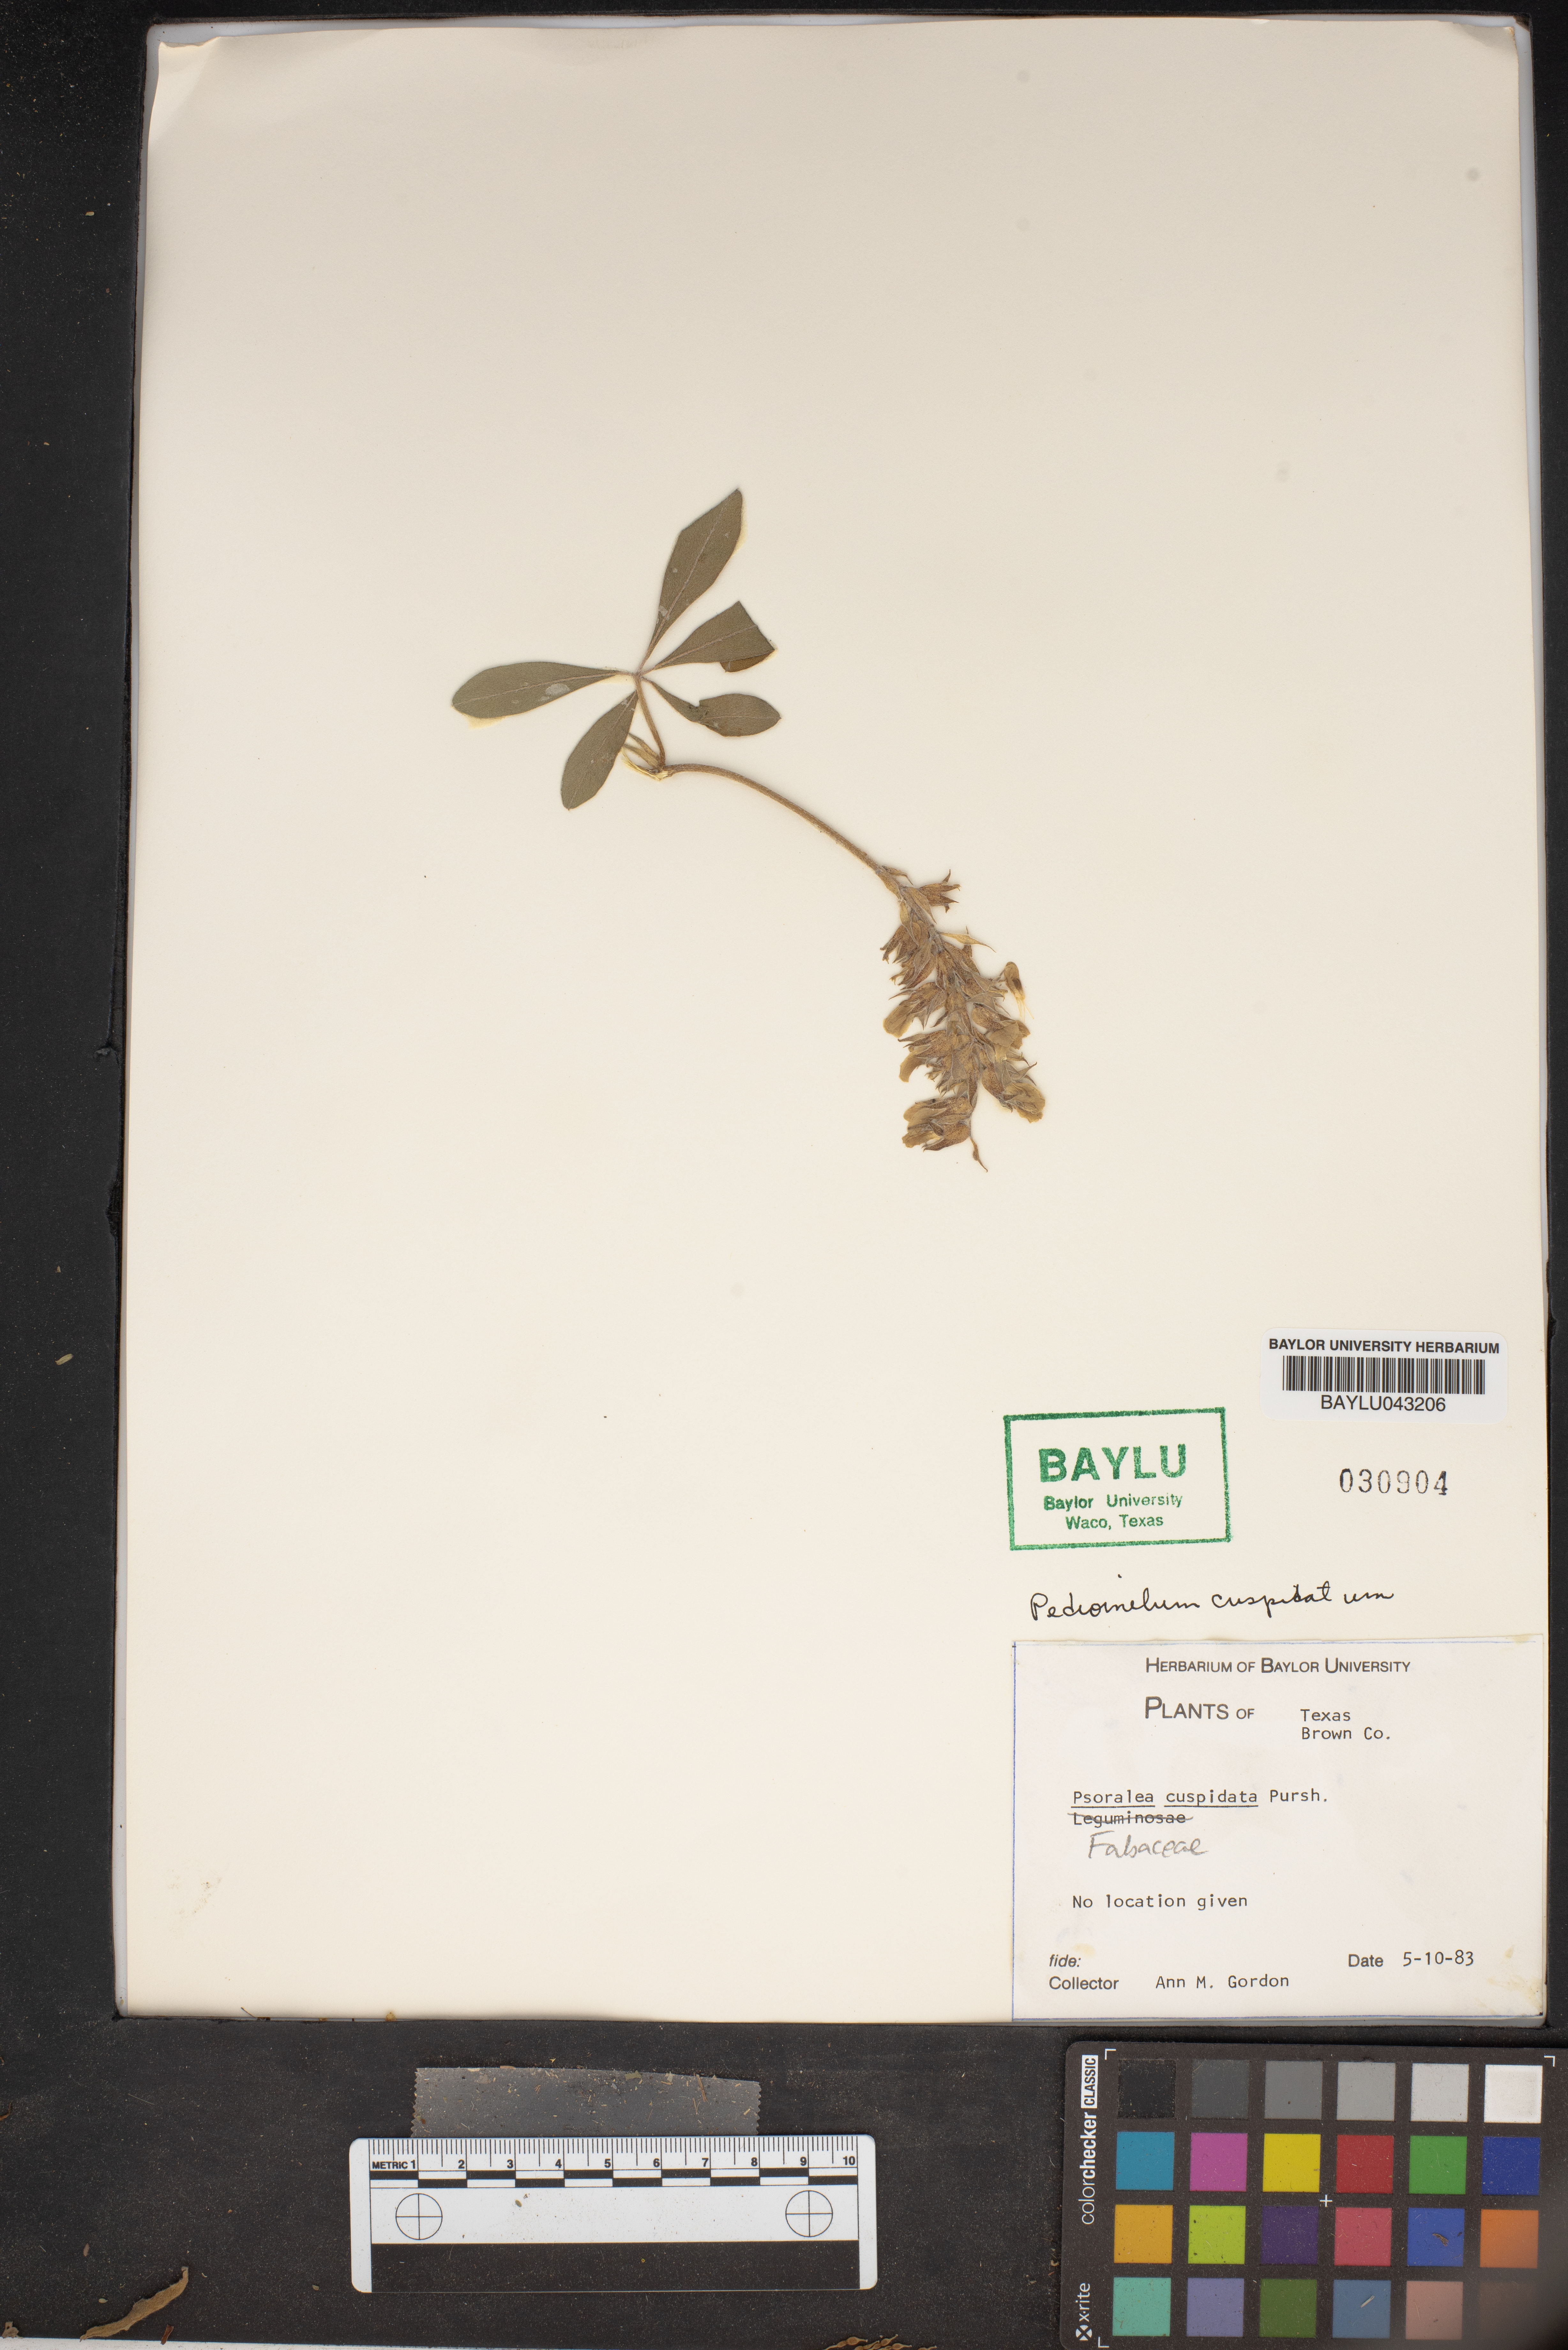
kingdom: Plantae
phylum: Tracheophyta
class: Magnoliopsida
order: Fabales
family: Fabaceae
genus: Pediomelum
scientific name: Pediomelum cuspidatum
